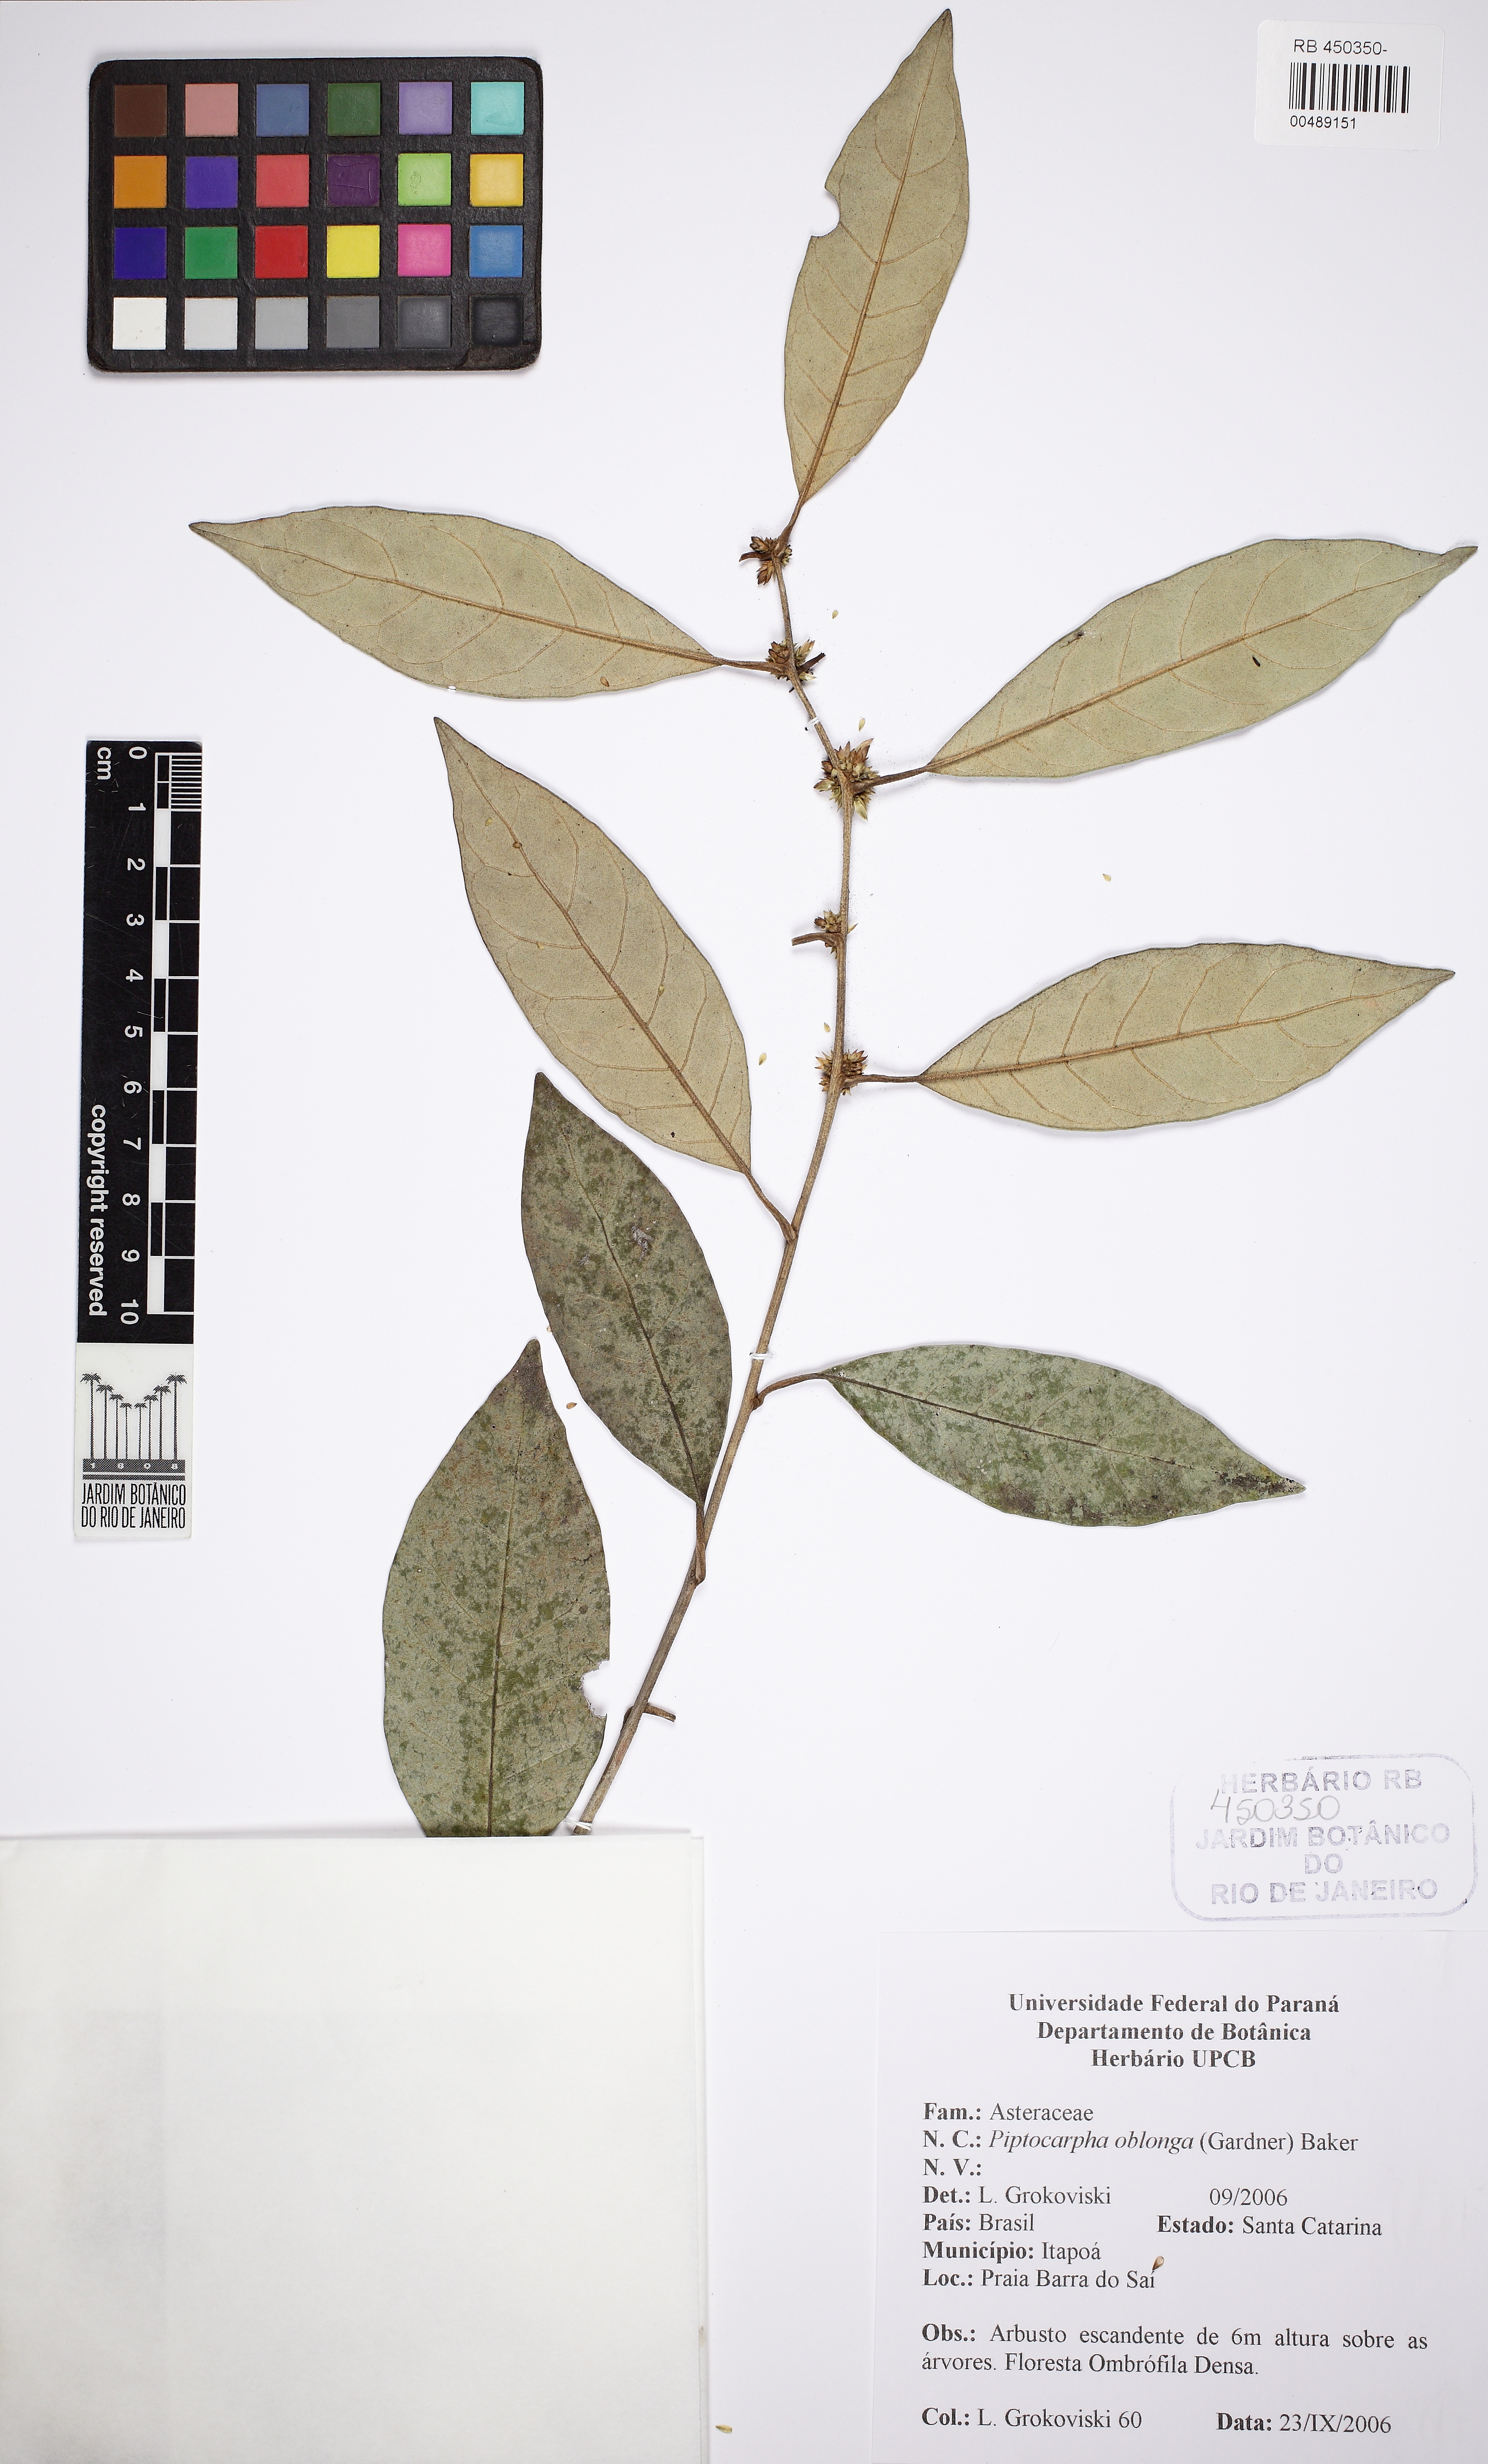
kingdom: Plantae
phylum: Tracheophyta
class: Magnoliopsida
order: Asterales
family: Asteraceae
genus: Piptocarpha
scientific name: Piptocarpha oblonga
